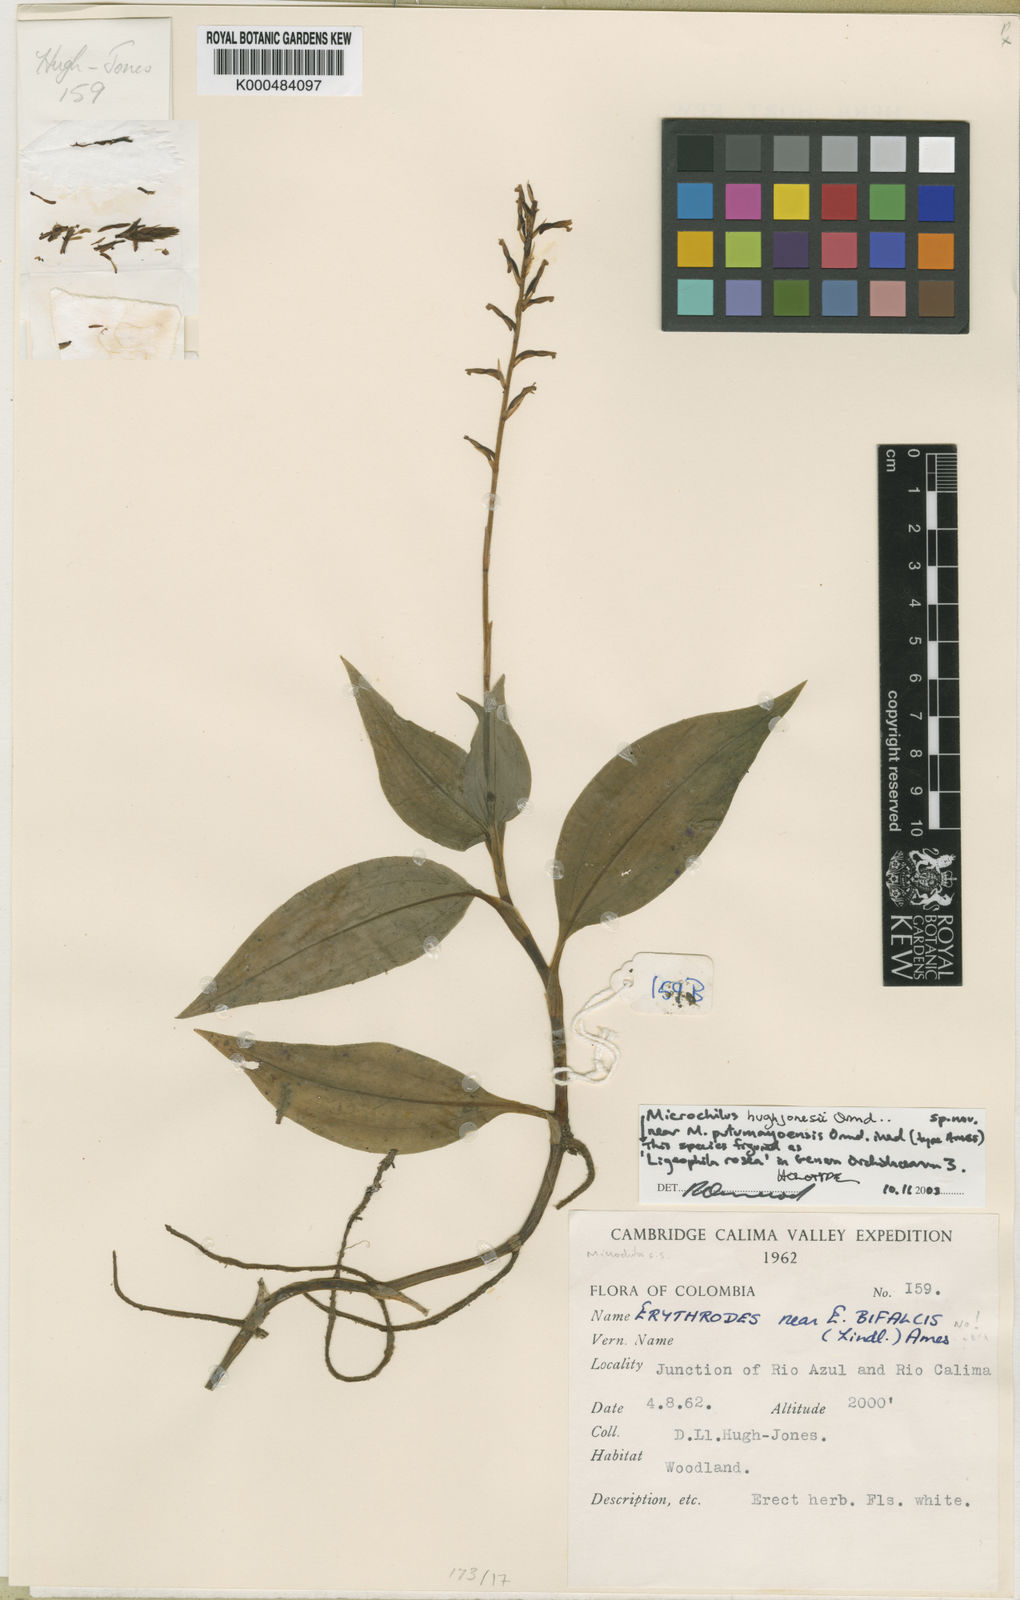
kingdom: Plantae
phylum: Tracheophyta
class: Liliopsida
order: Asparagales
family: Orchidaceae
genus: Aspidogyne
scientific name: Aspidogyne rosea
